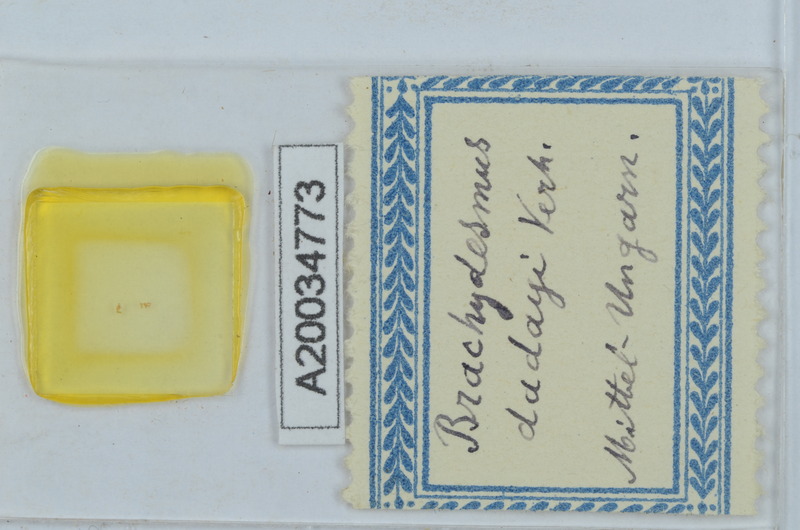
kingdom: Animalia
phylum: Arthropoda
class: Diplopoda
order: Polydesmida
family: Polydesmidae
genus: Brachydesmus
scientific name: Brachydesmus dadayii
